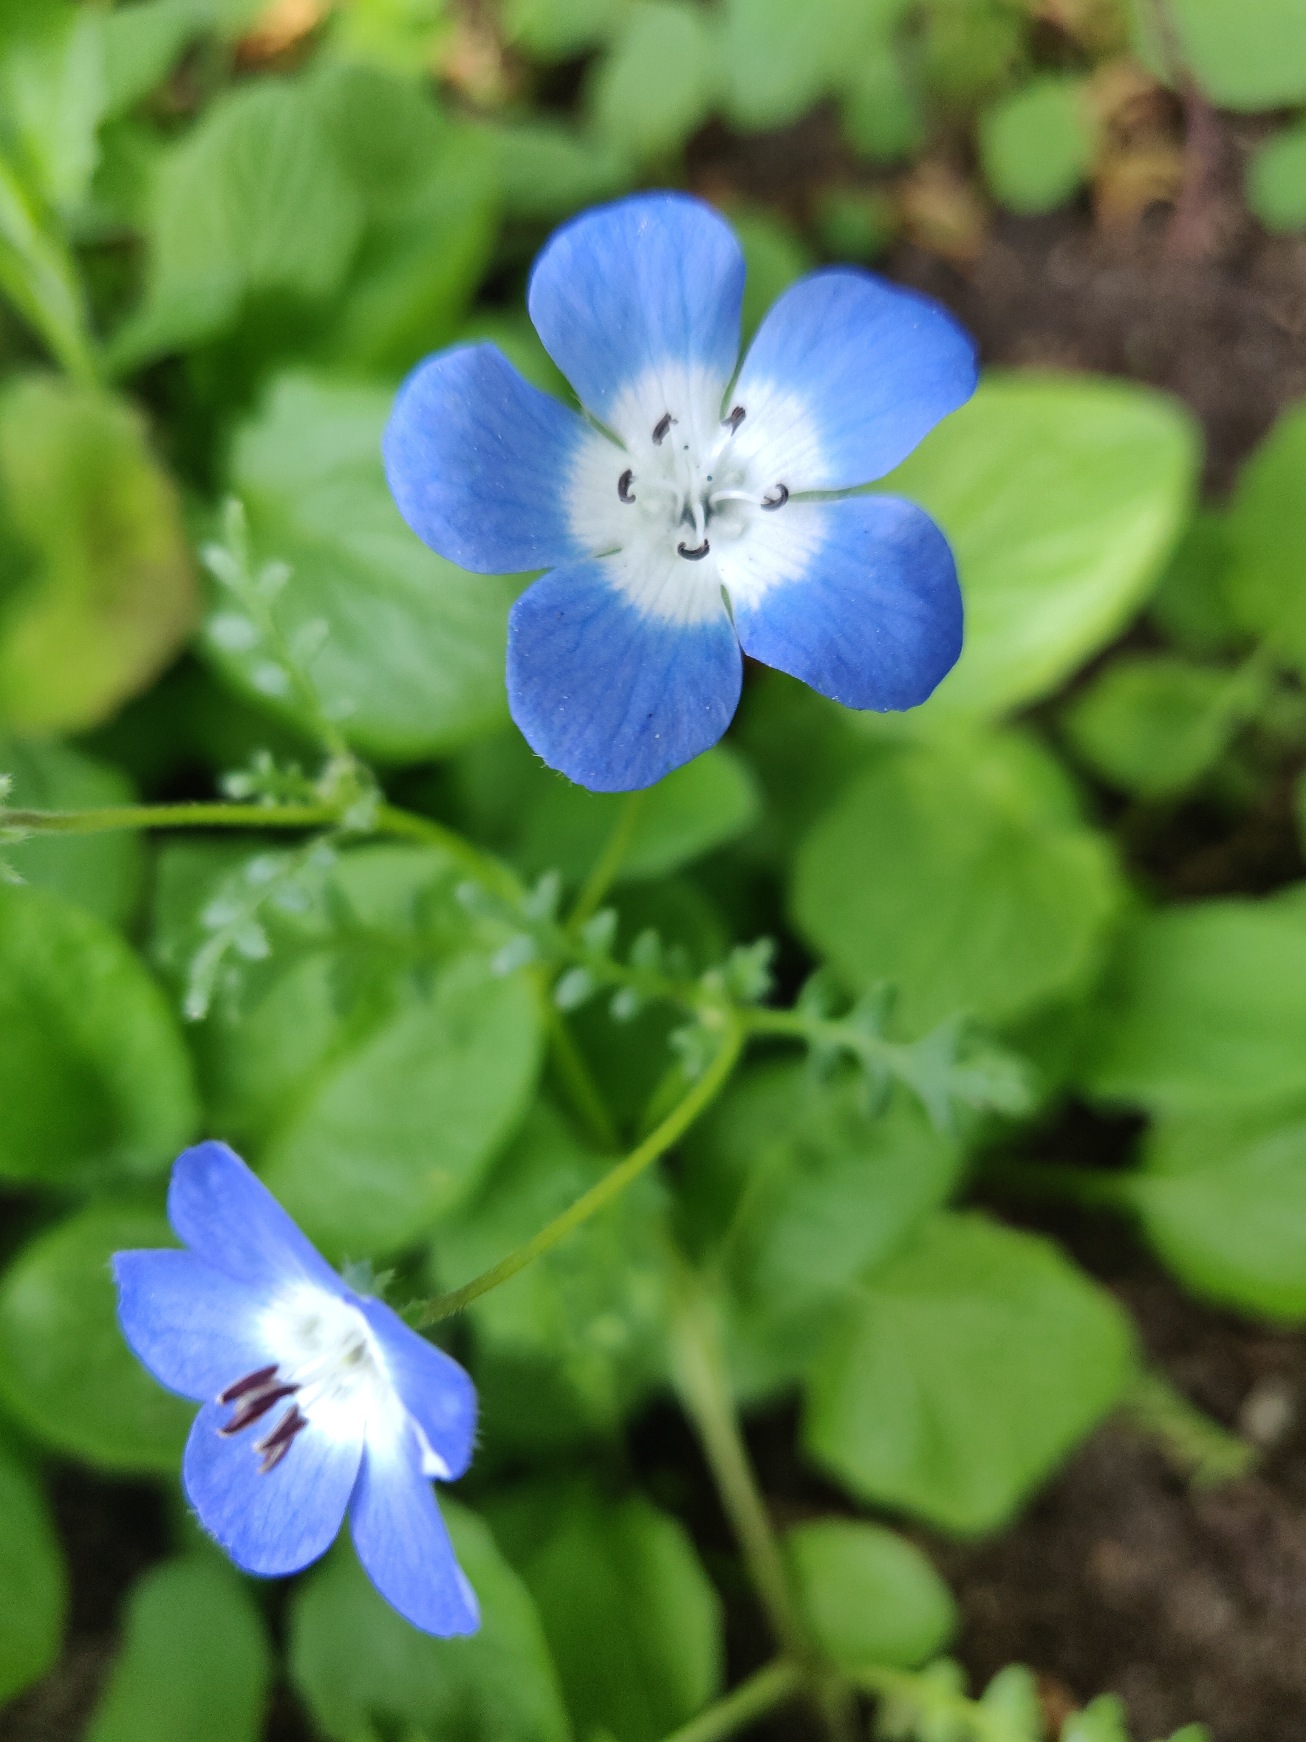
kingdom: Plantae
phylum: Tracheophyta
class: Magnoliopsida
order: Boraginales
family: Hydrophyllaceae
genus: Nemophila
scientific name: Nemophila menziesii
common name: Blå øjeblomst
